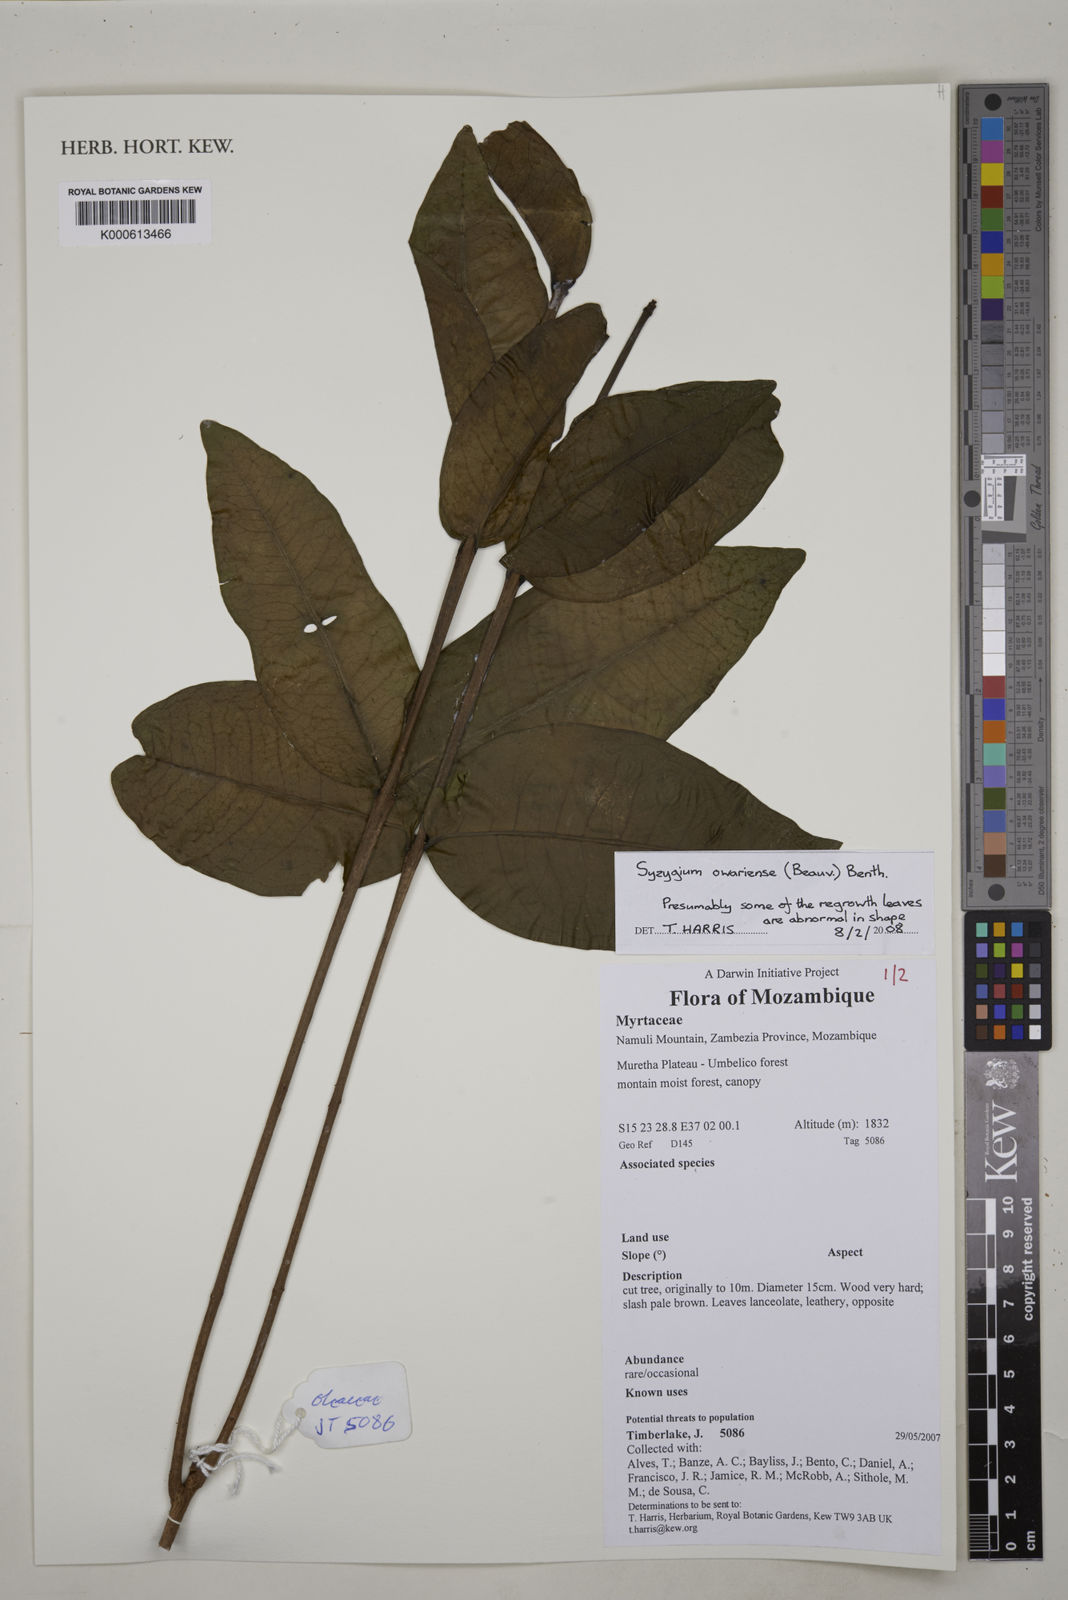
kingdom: Plantae
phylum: Tracheophyta
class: Magnoliopsida
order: Myrtales
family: Myrtaceae
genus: Syzygium
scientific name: Syzygium owariense
